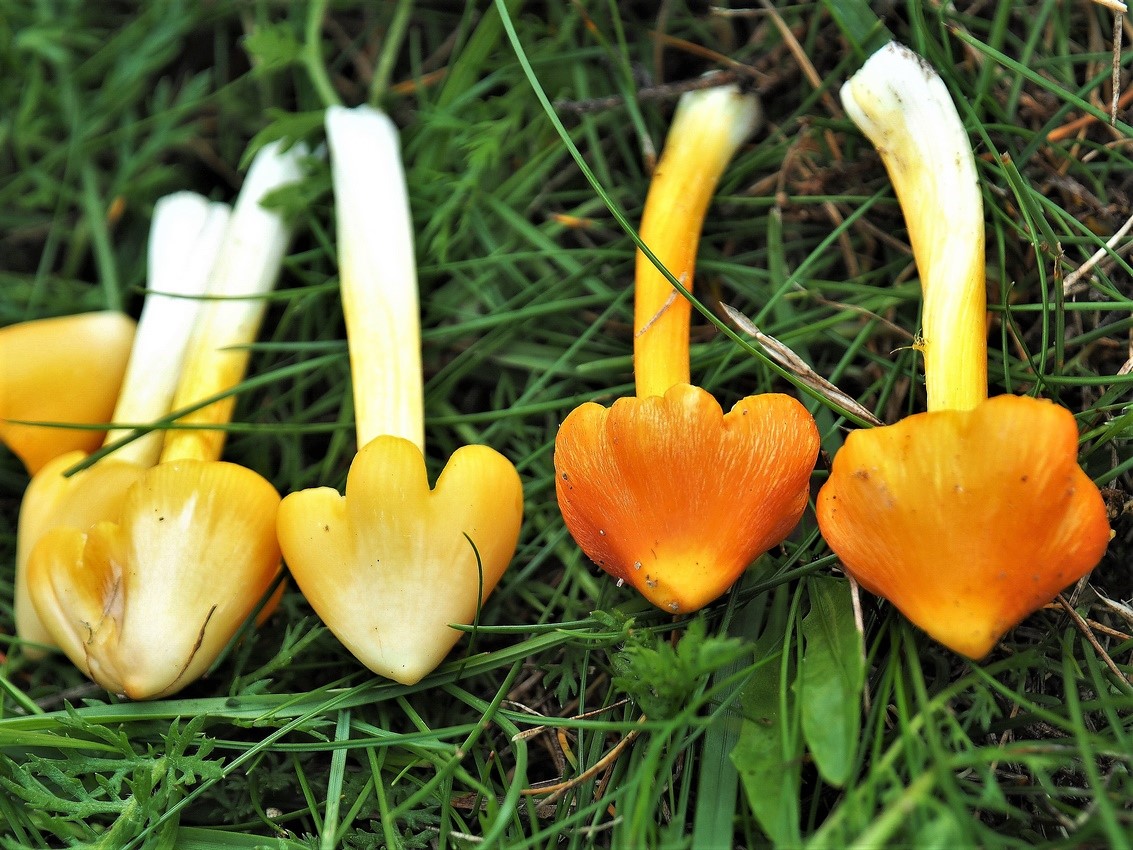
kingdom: Fungi
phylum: Basidiomycota
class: Agaricomycetes
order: Agaricales
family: Hygrophoraceae
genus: Hygrocybe
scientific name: Hygrocybe acutoconica
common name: Konrads vokshat
